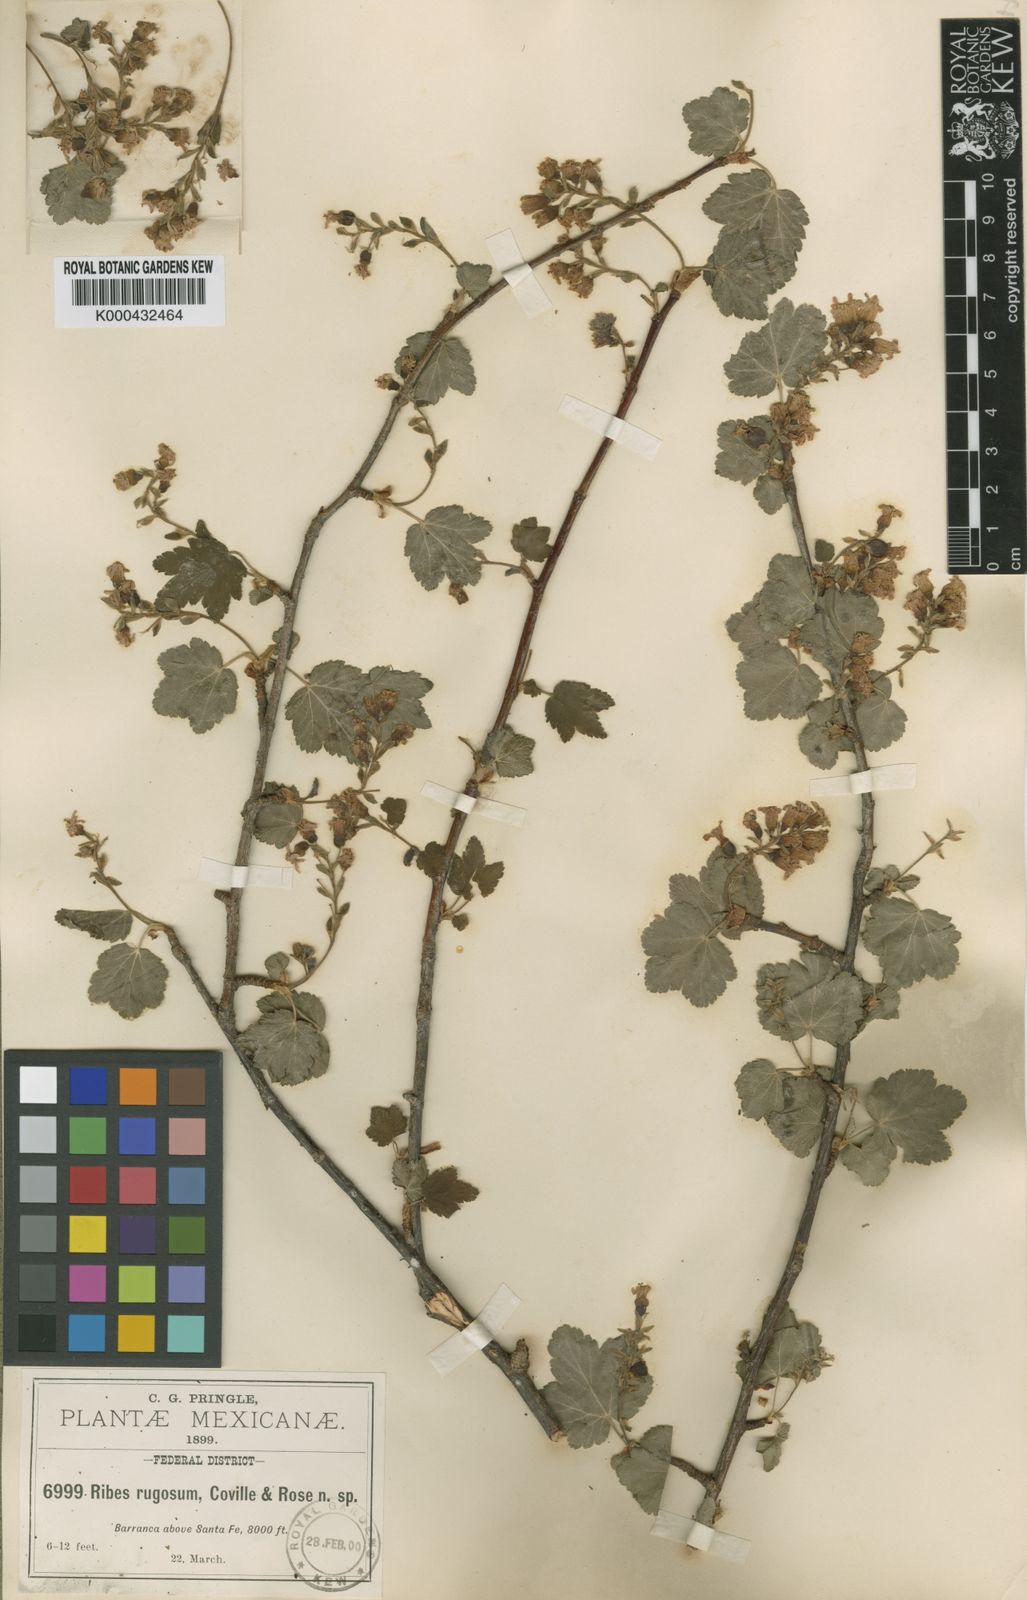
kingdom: Plantae
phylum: Tracheophyta
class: Magnoliopsida
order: Saxifragales
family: Grossulariaceae
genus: Ribes
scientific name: Ribes affine
